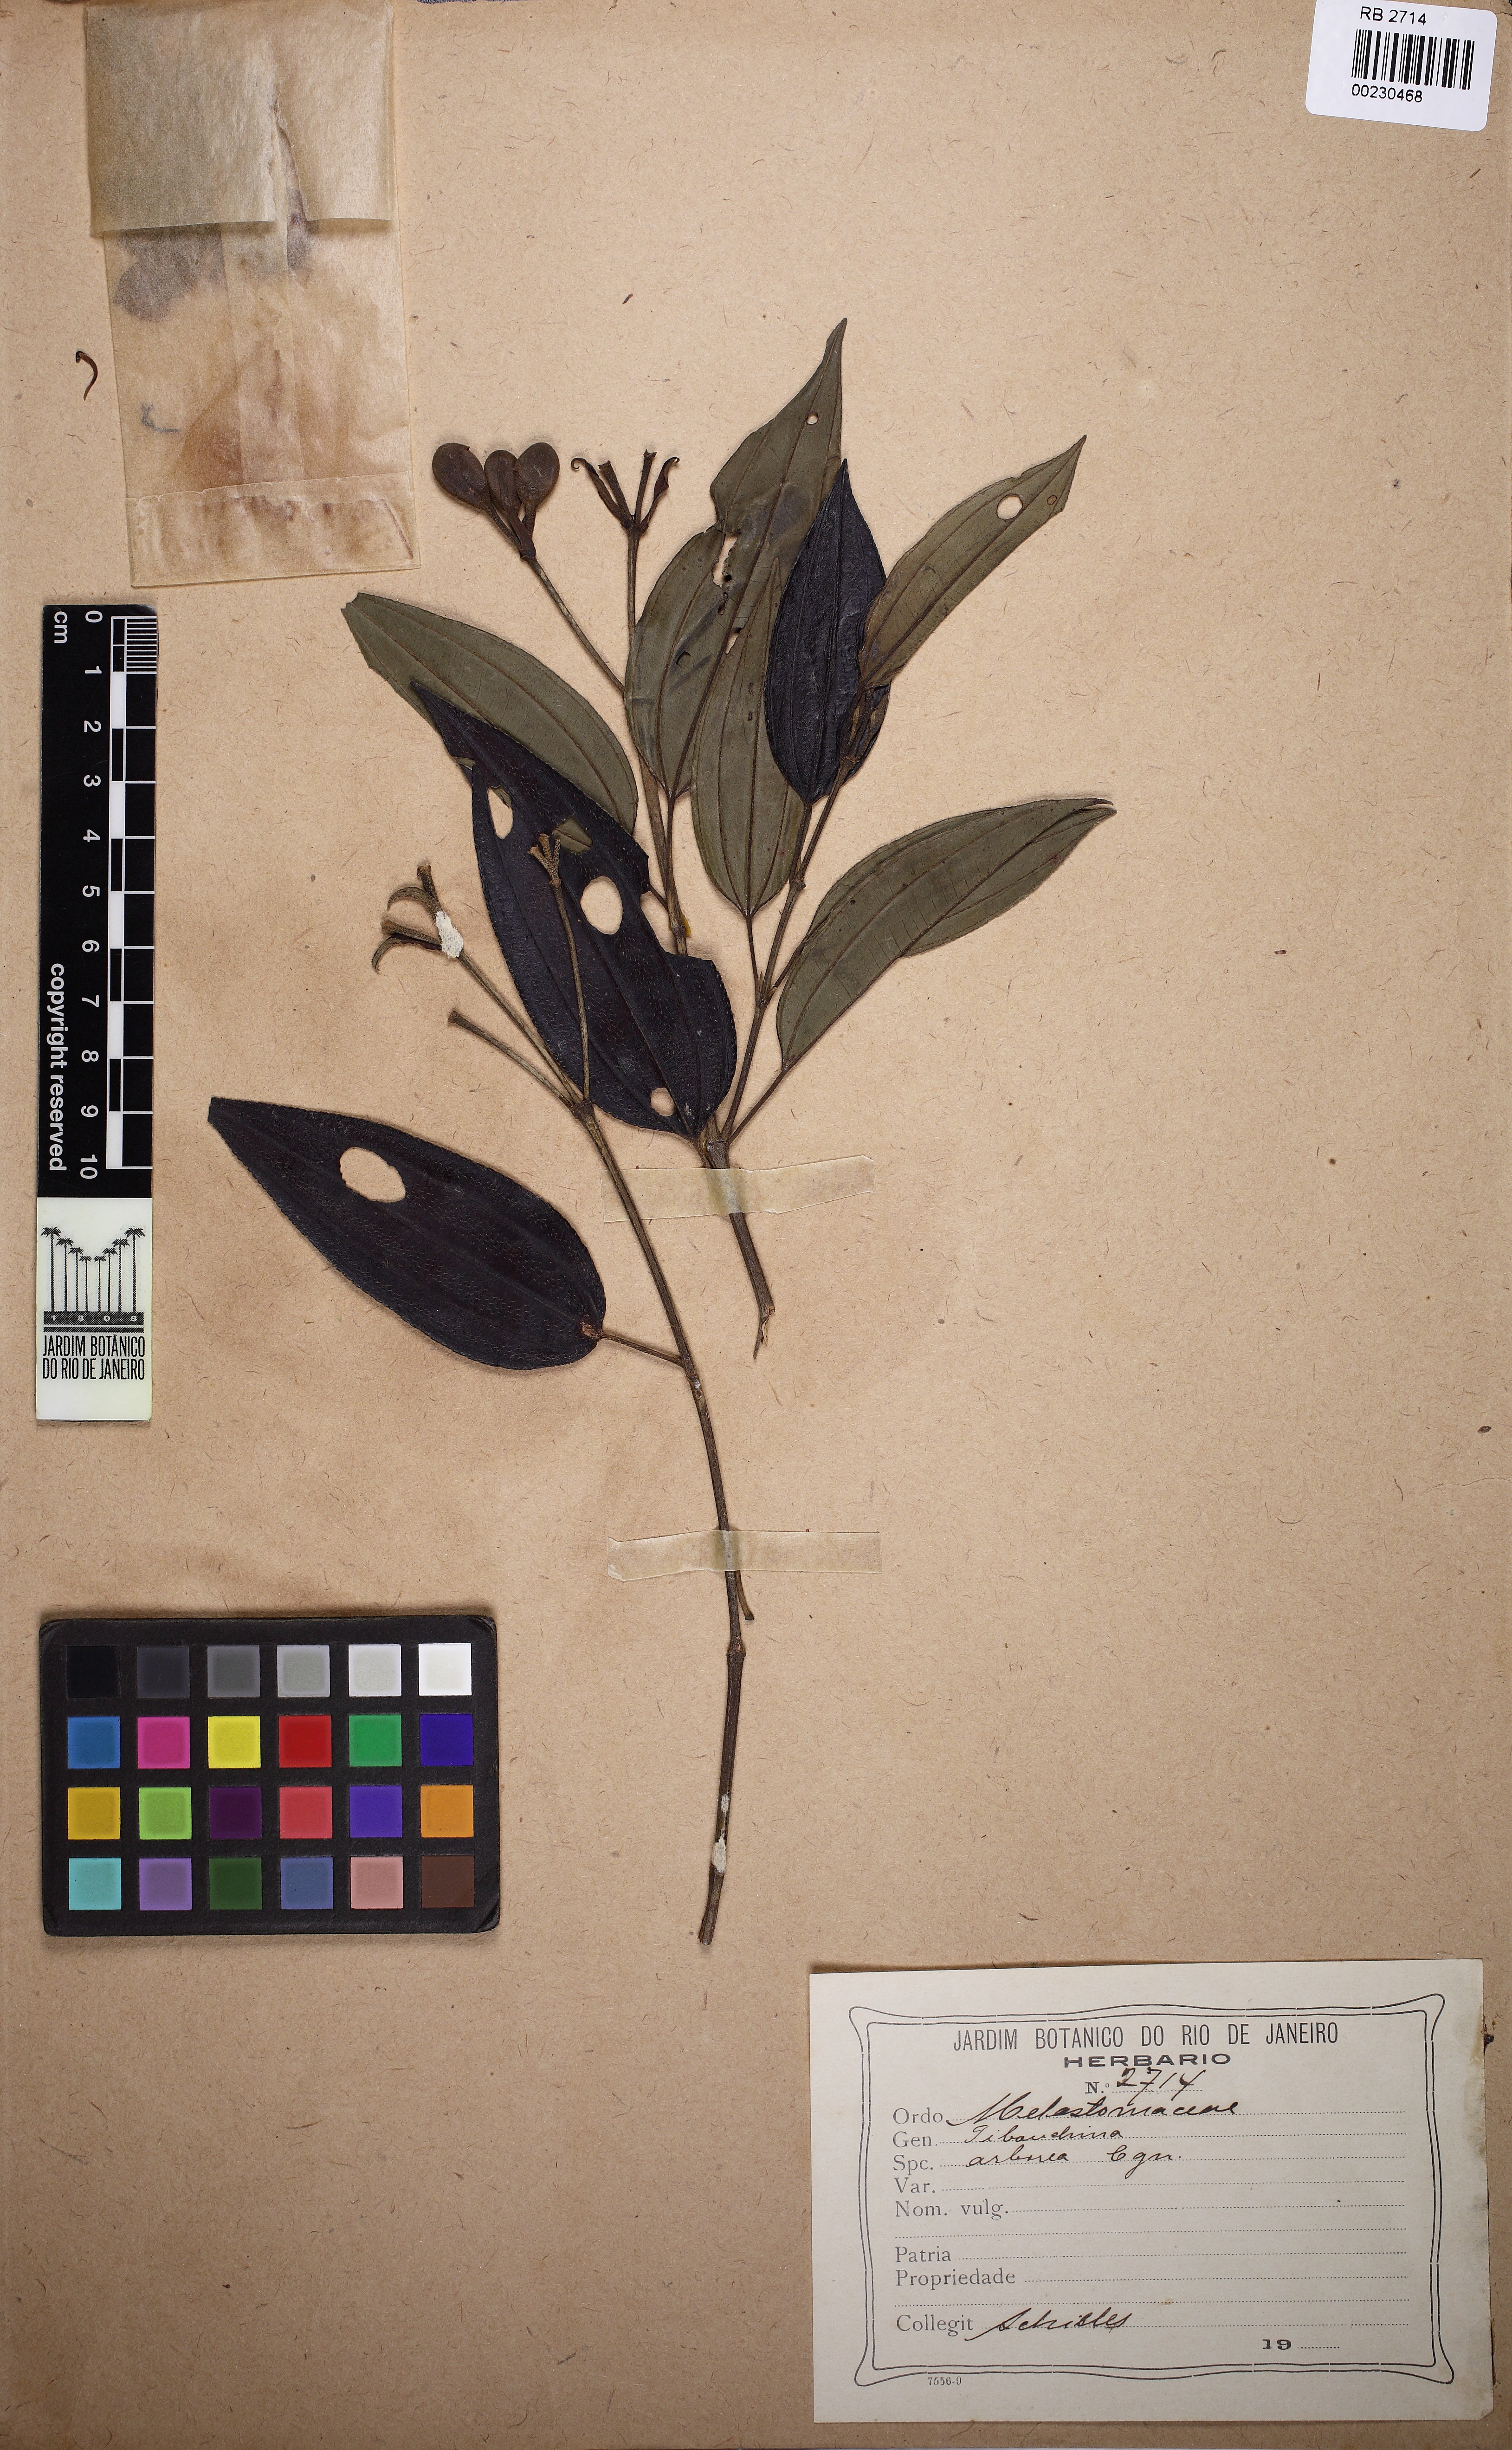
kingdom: Plantae
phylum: Tracheophyta
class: Magnoliopsida
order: Myrtales
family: Melastomataceae
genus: Pleroma
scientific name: Pleroma arboreum
